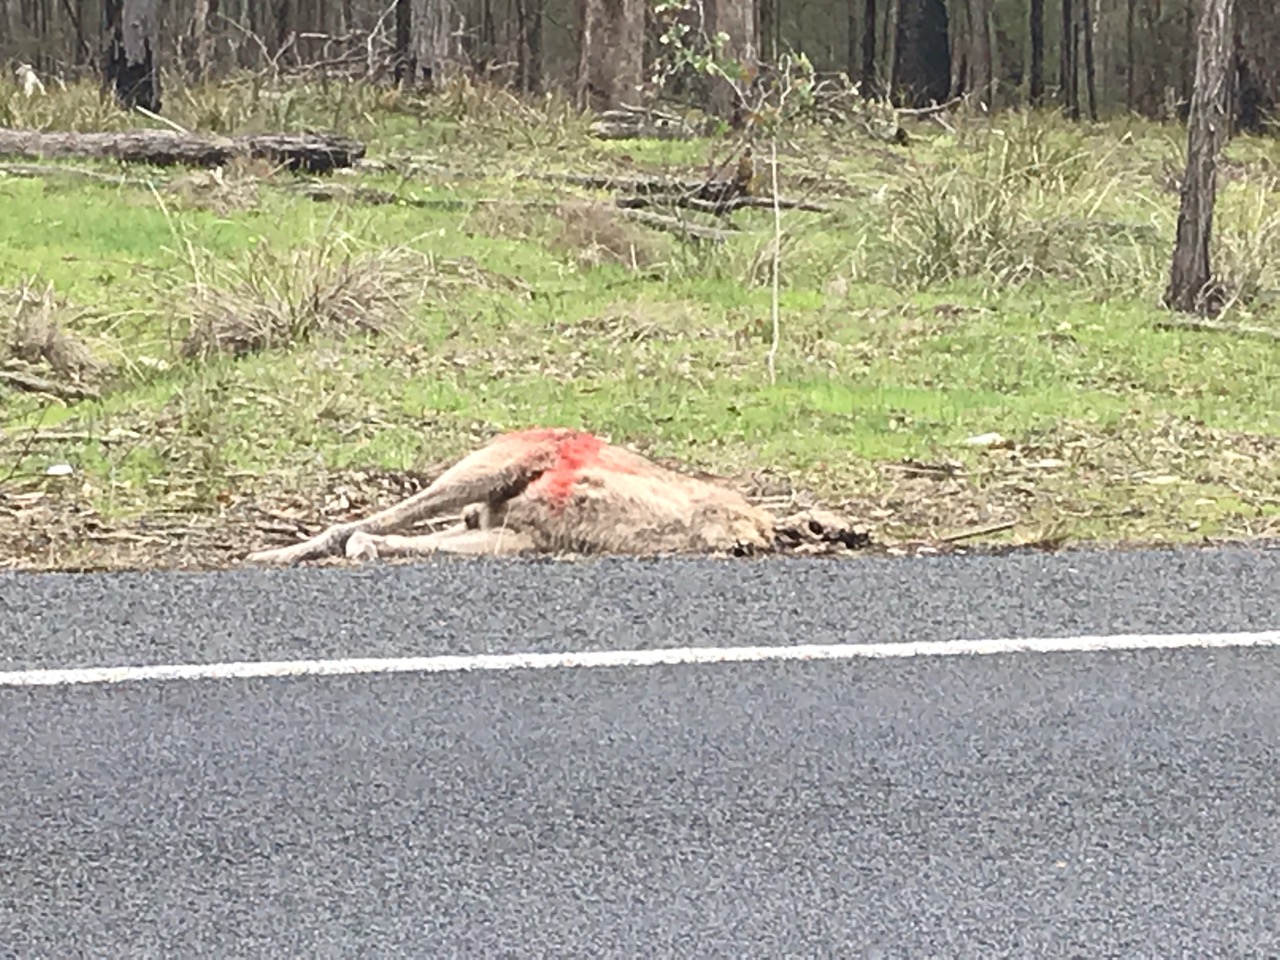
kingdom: Animalia
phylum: Chordata
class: Mammalia
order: Diprotodontia
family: Macropodidae
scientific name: Macropodidae
